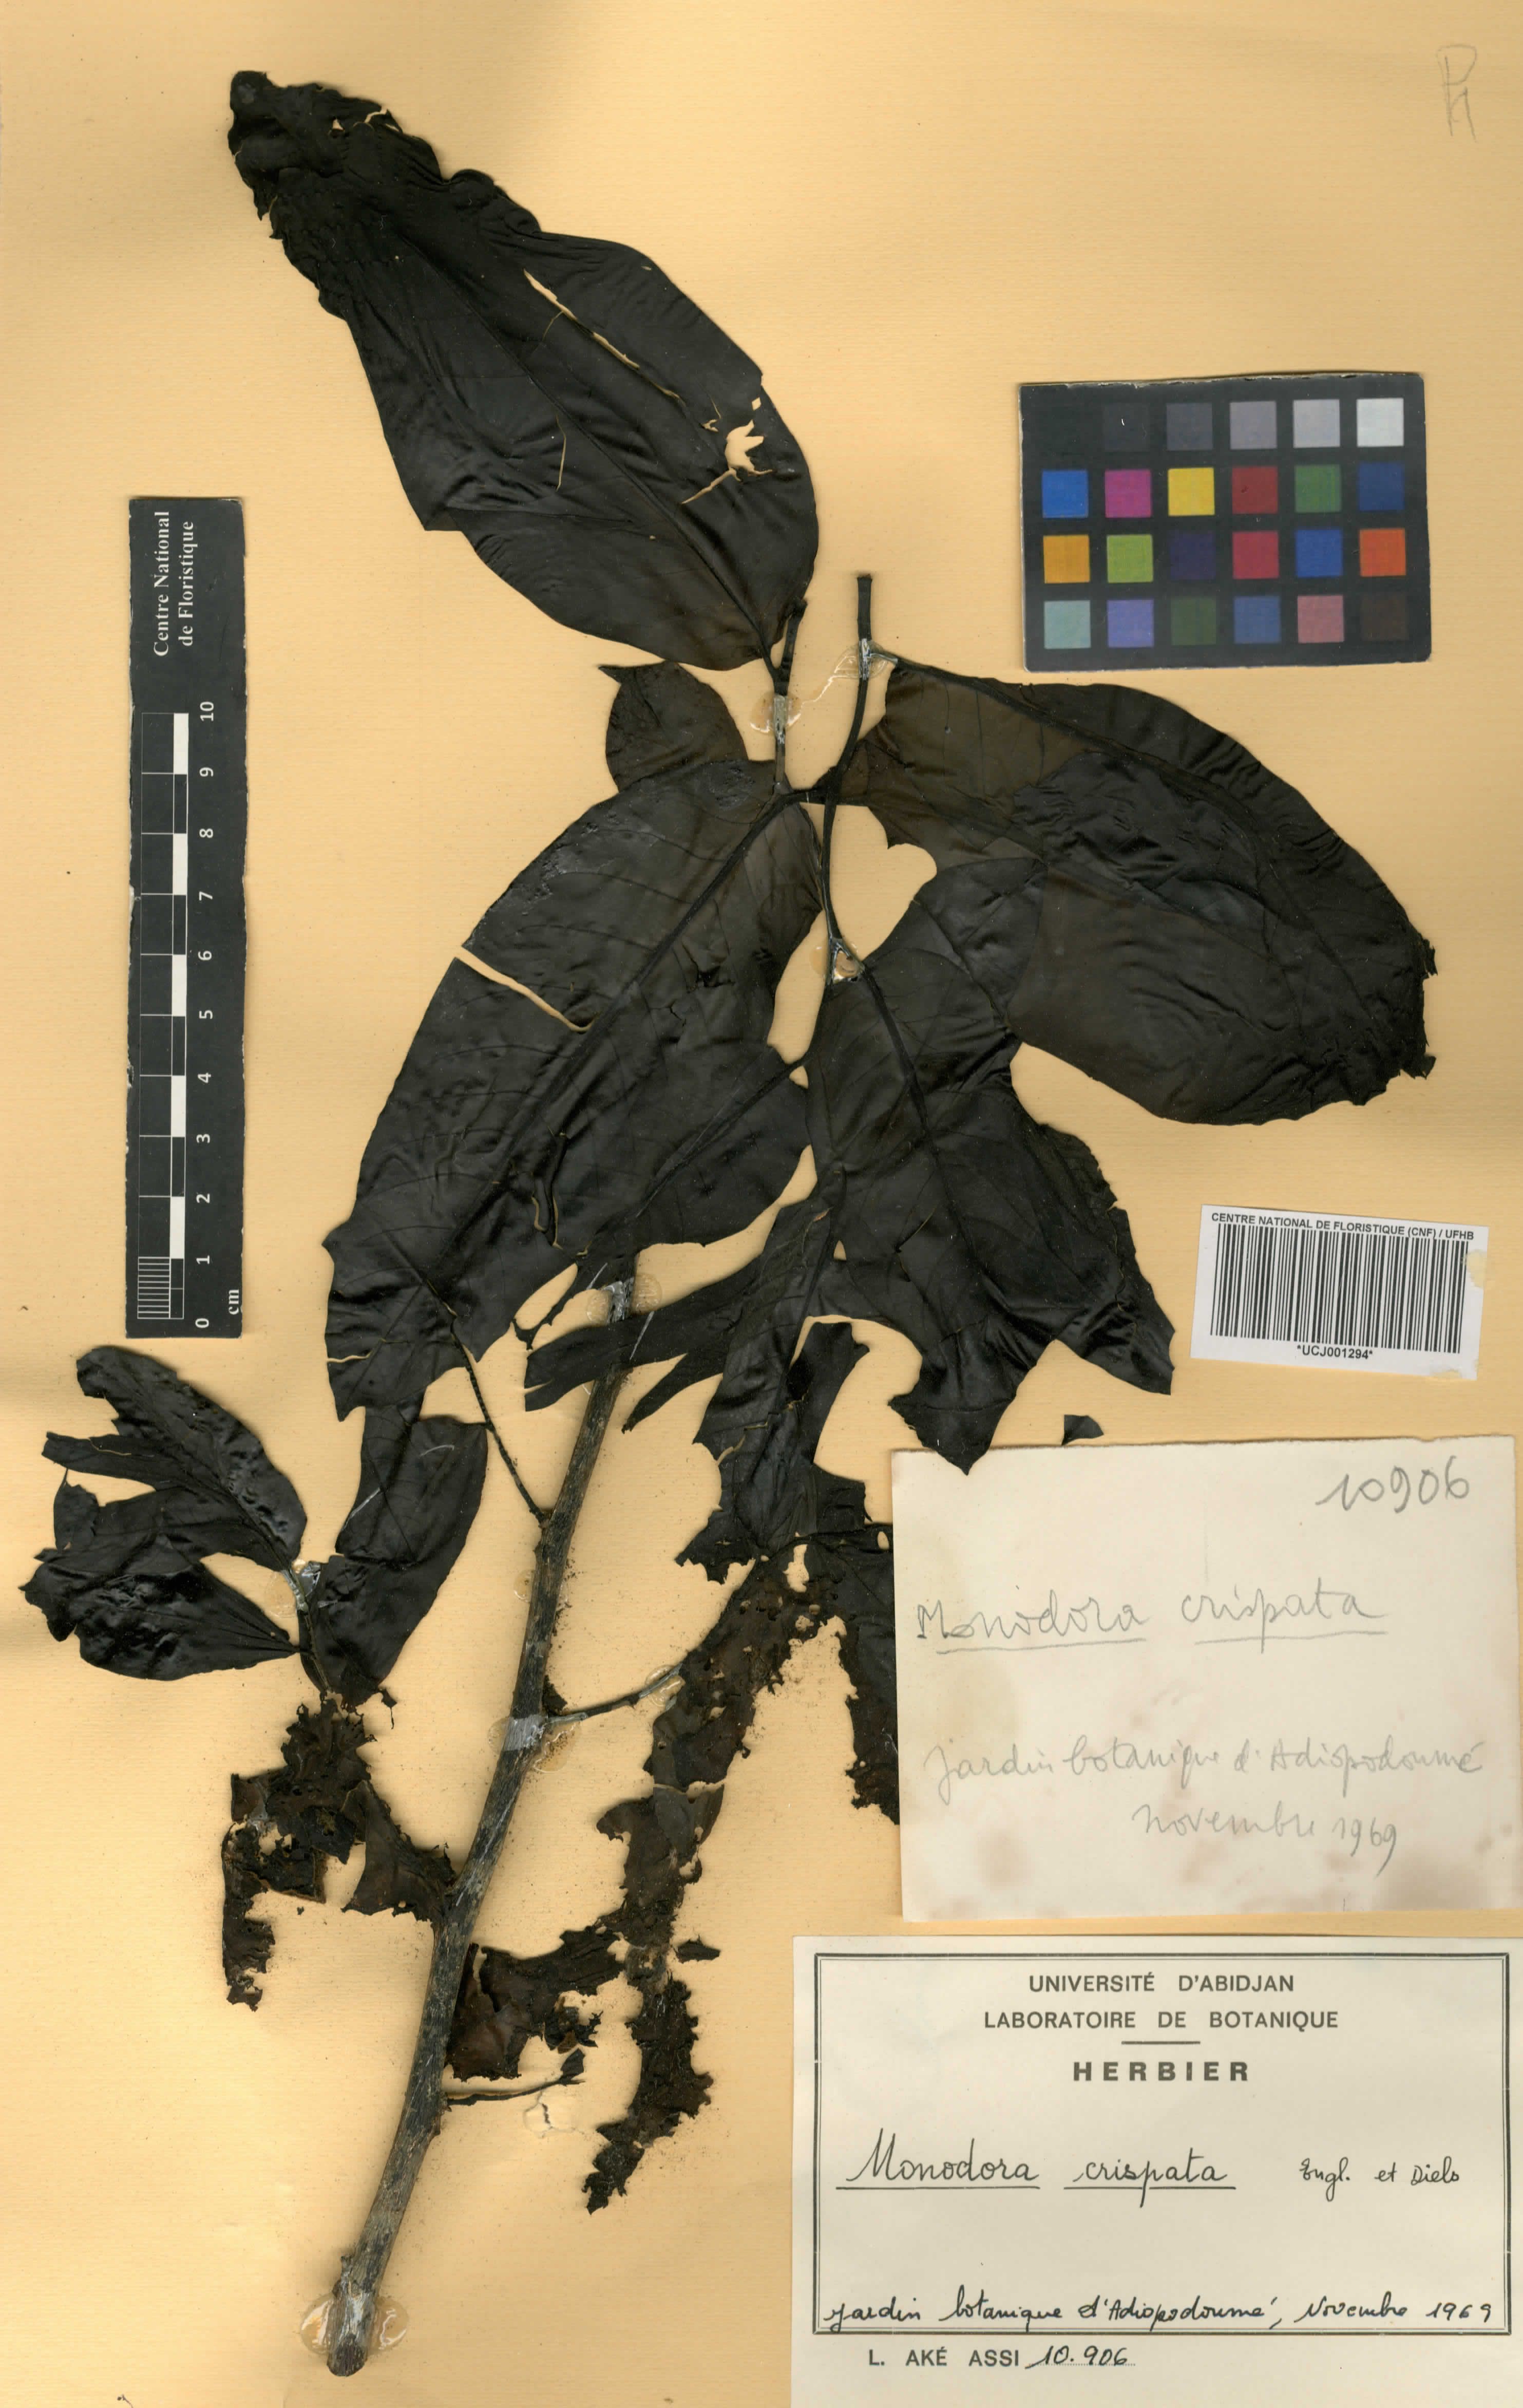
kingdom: Plantae
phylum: Tracheophyta
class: Magnoliopsida
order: Magnoliales
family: Annonaceae
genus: Monodora
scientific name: Monodora crispata
